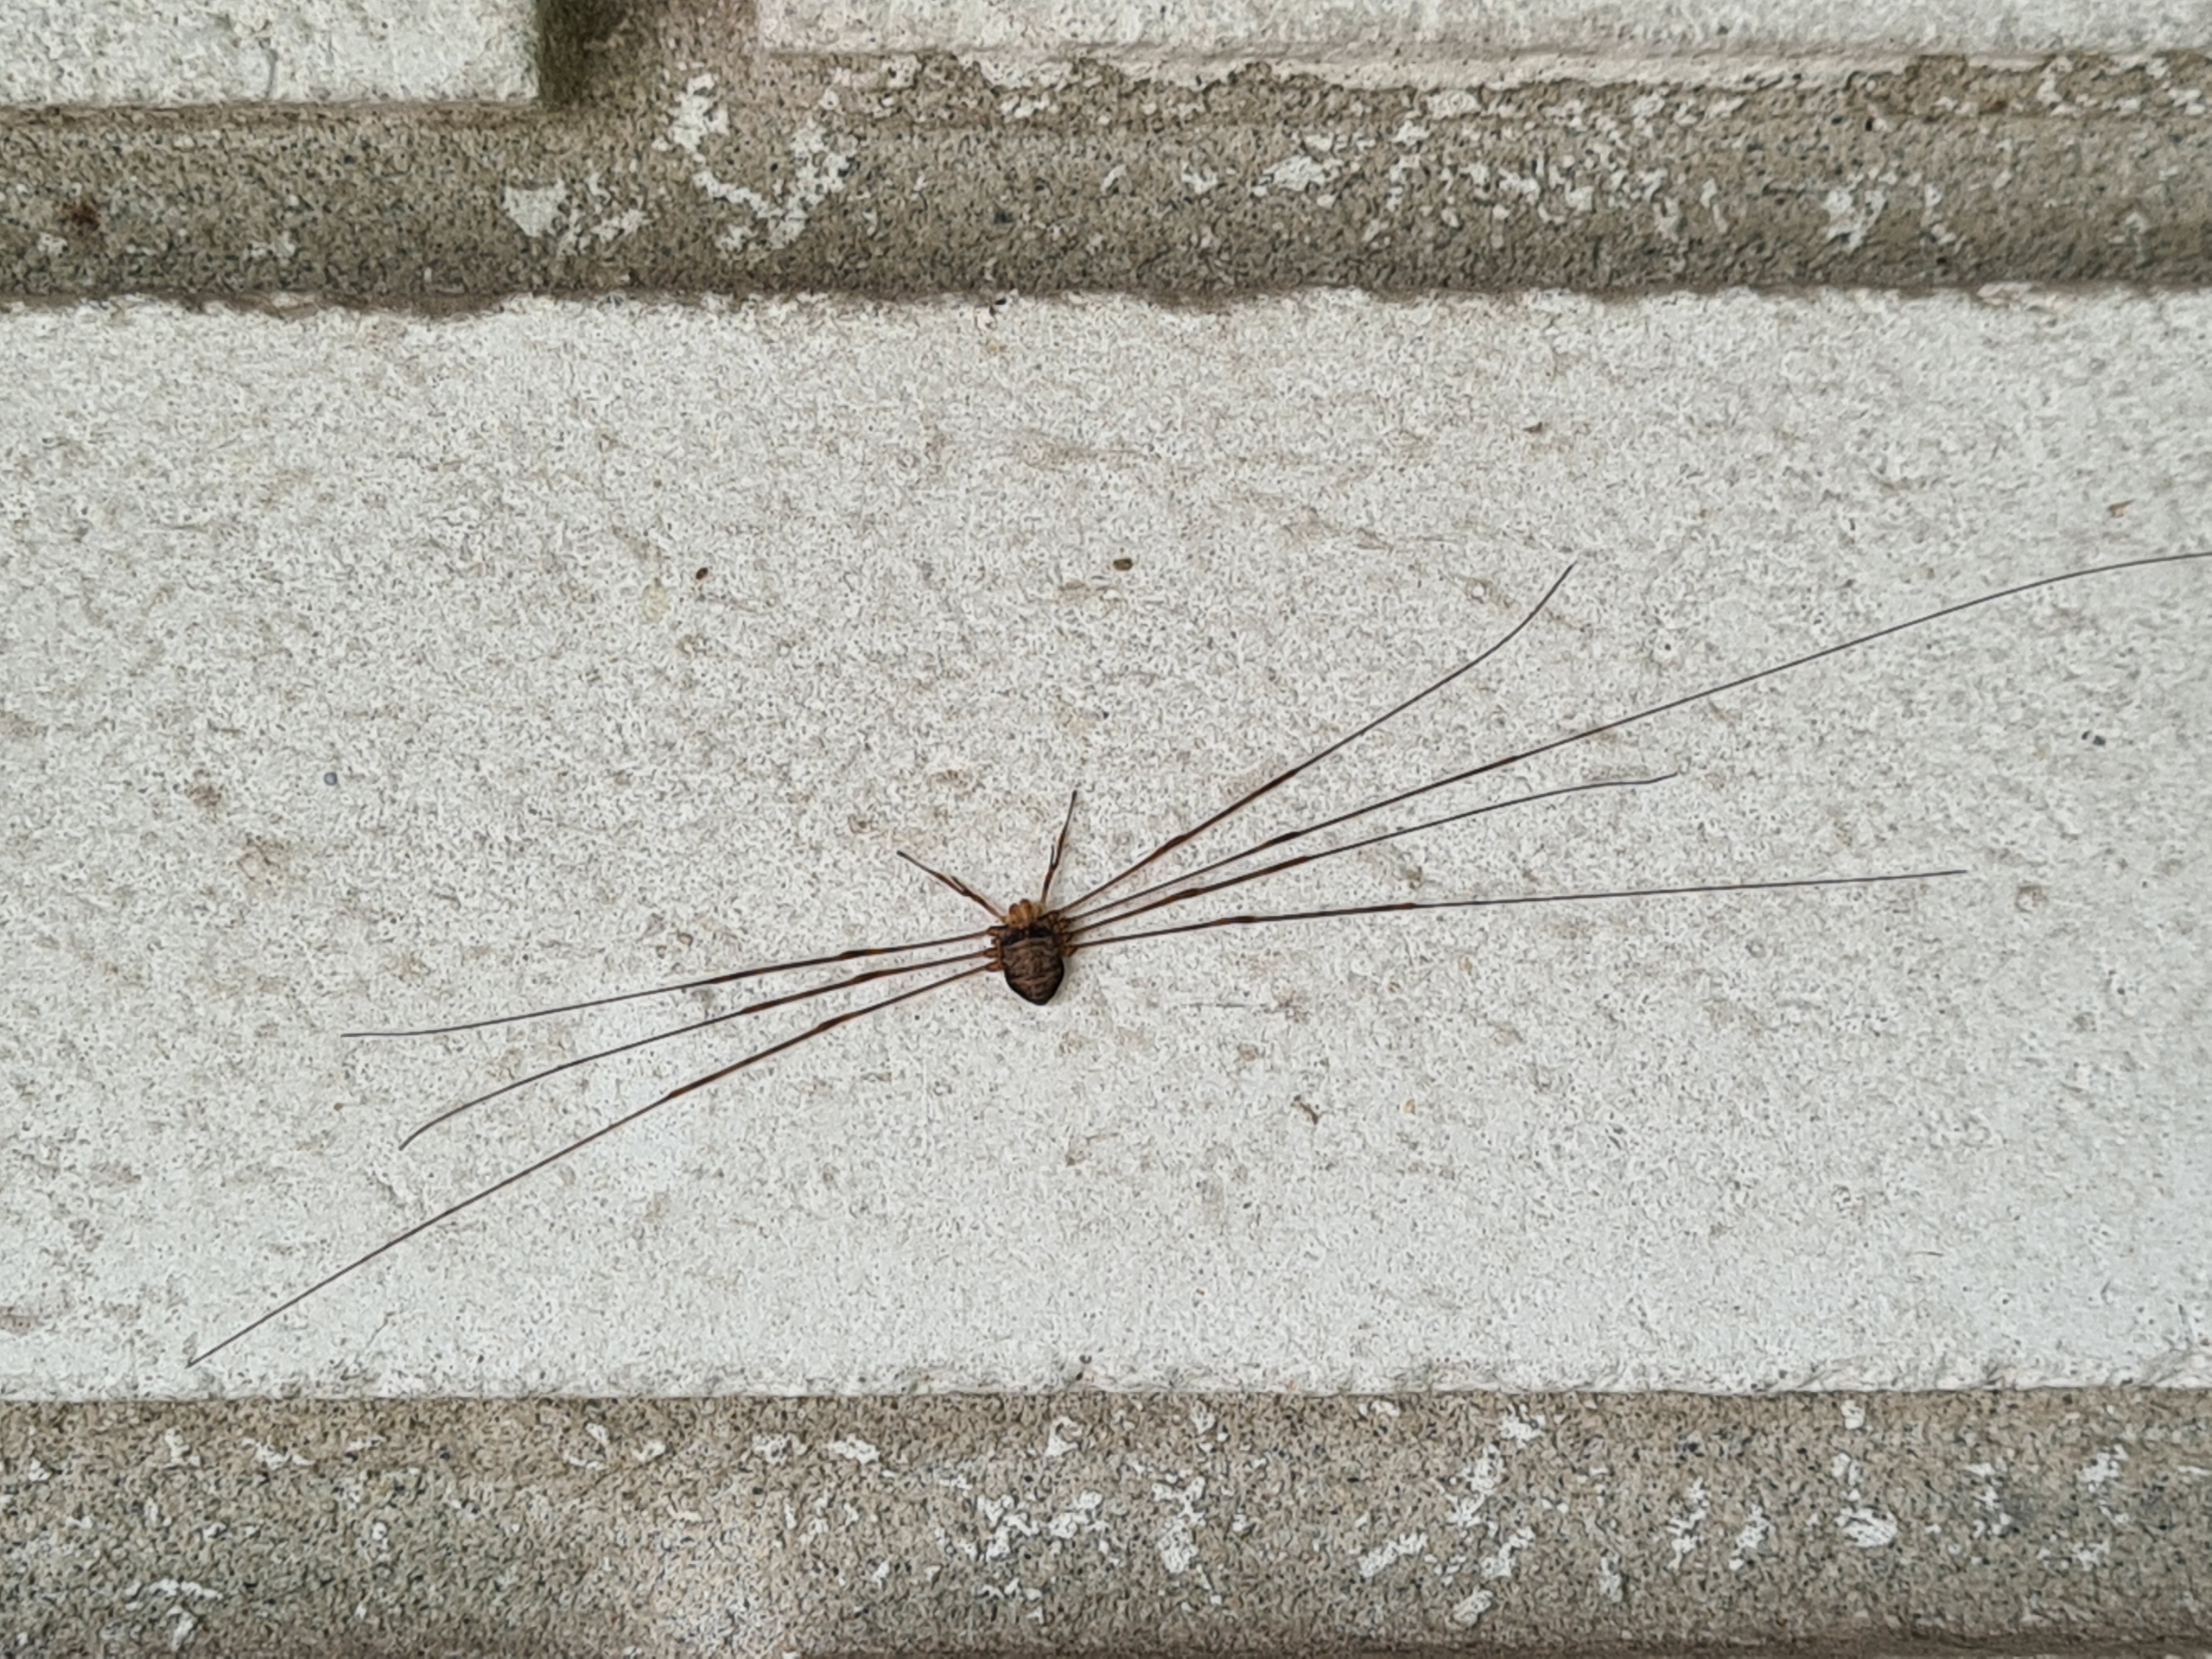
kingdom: Animalia
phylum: Arthropoda
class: Arachnida
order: Opiliones
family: Phalangiidae
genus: Dicranopalpus
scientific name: Dicranopalpus ramosus
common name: Gaffelmejer
